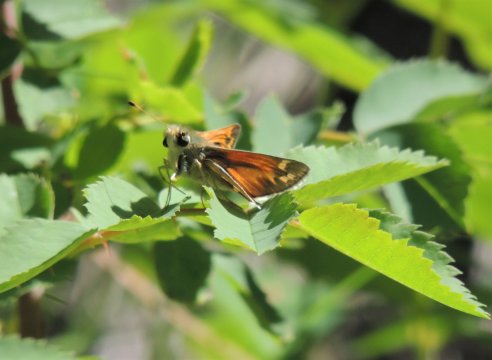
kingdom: Animalia
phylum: Arthropoda
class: Insecta
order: Lepidoptera
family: Hesperiidae
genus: Hesperia
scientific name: Hesperia juba
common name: Juba Skipper
